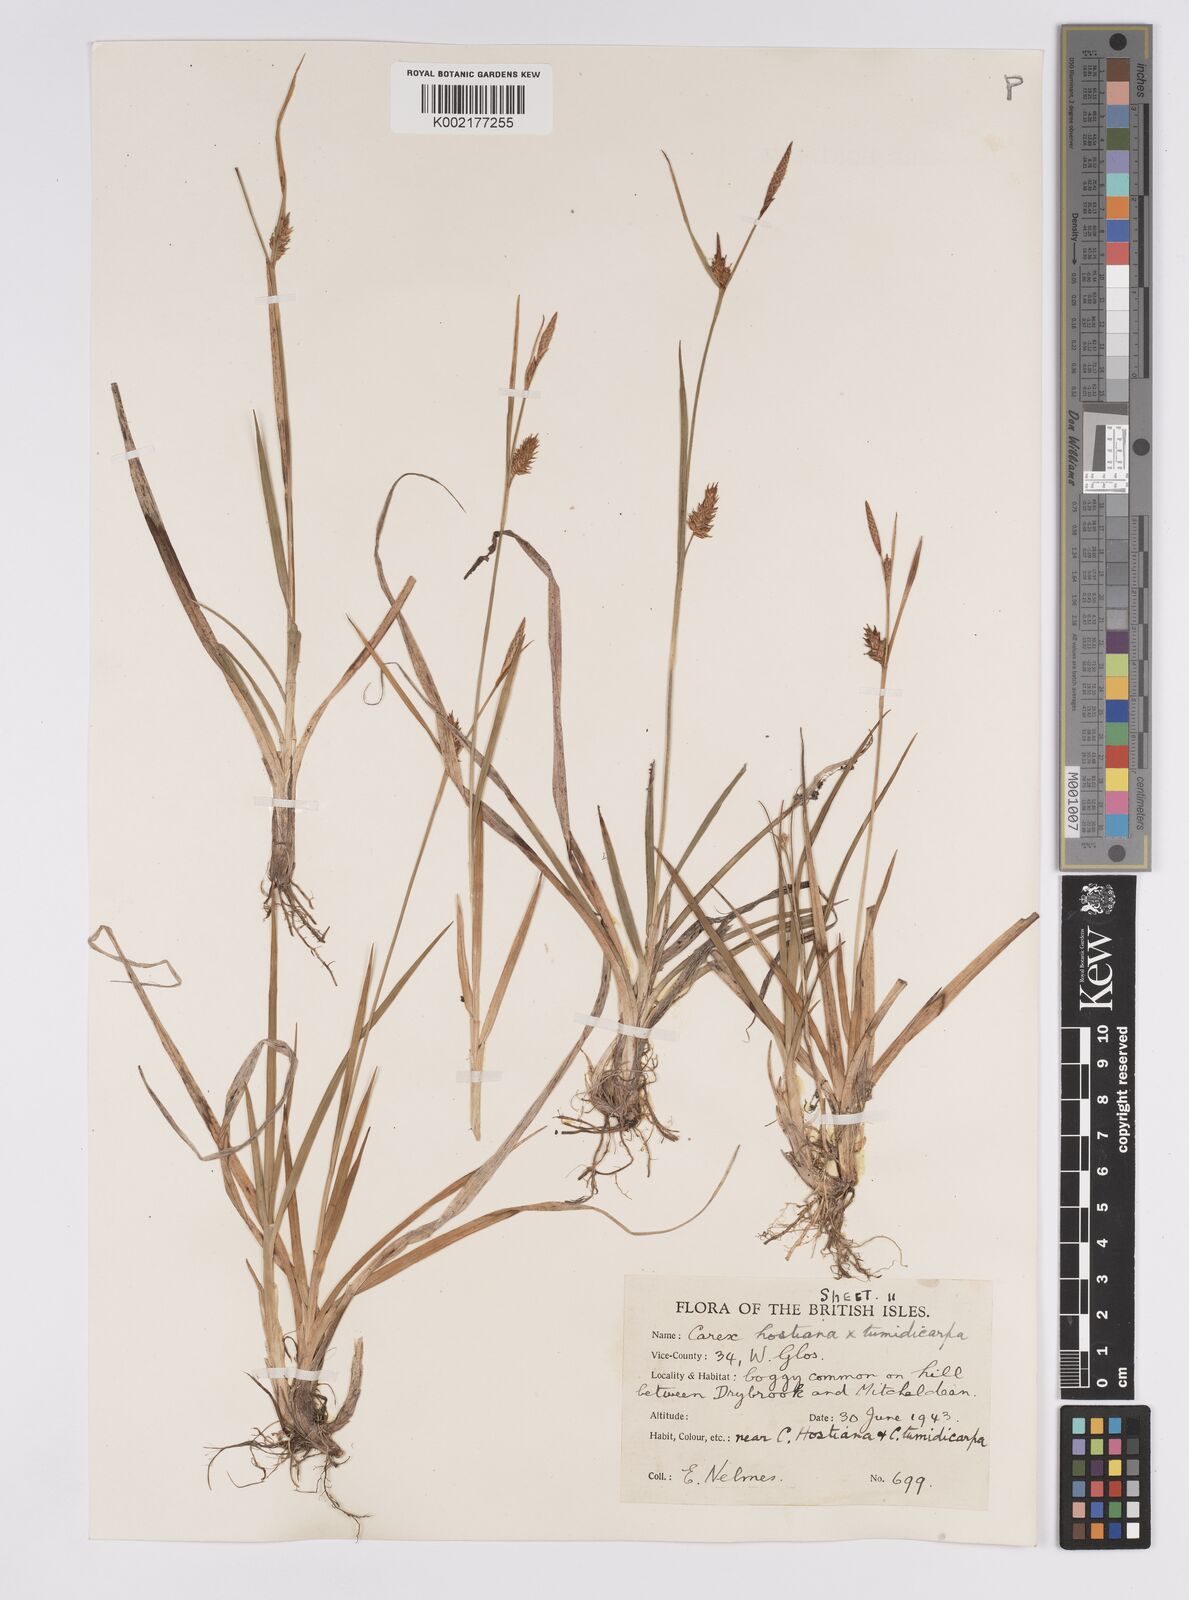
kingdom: Plantae
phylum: Tracheophyta
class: Liliopsida
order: Poales
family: Cyperaceae
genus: Carex
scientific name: Carex hostiana
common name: Tawny sedge
